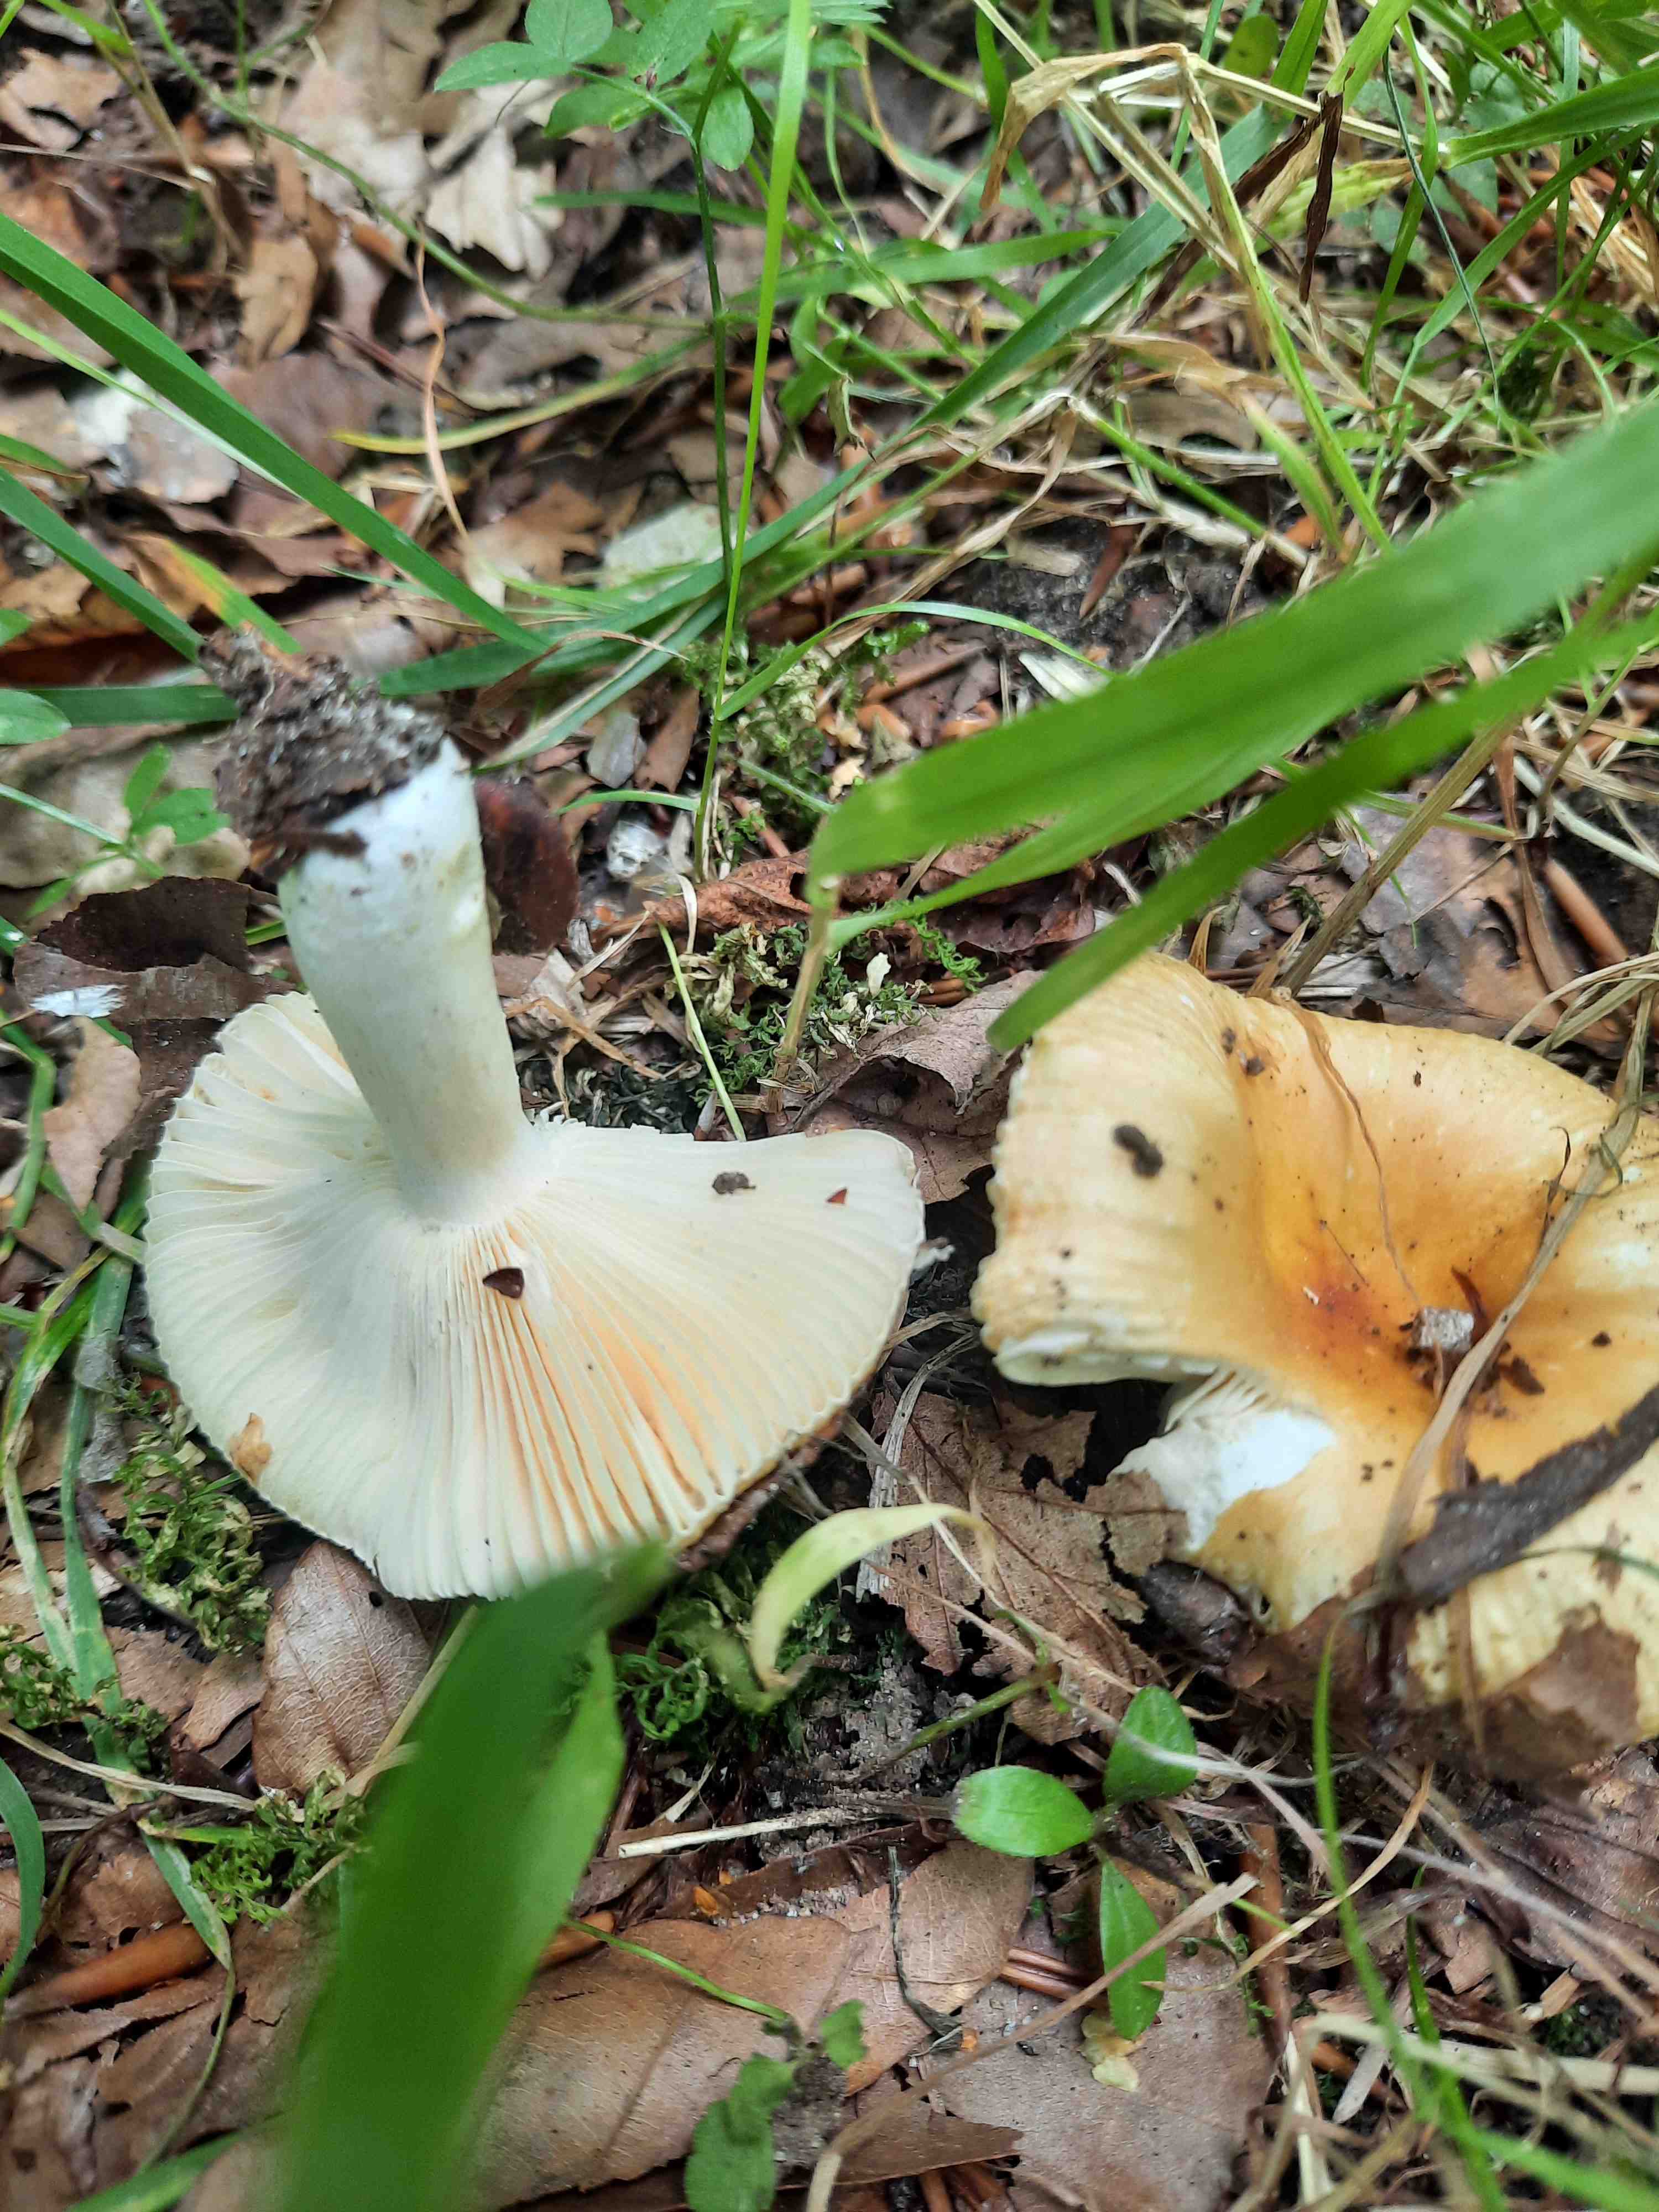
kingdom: Fungi
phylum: Basidiomycota
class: Agaricomycetes
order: Russulales
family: Russulaceae
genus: Russula
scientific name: Russula
